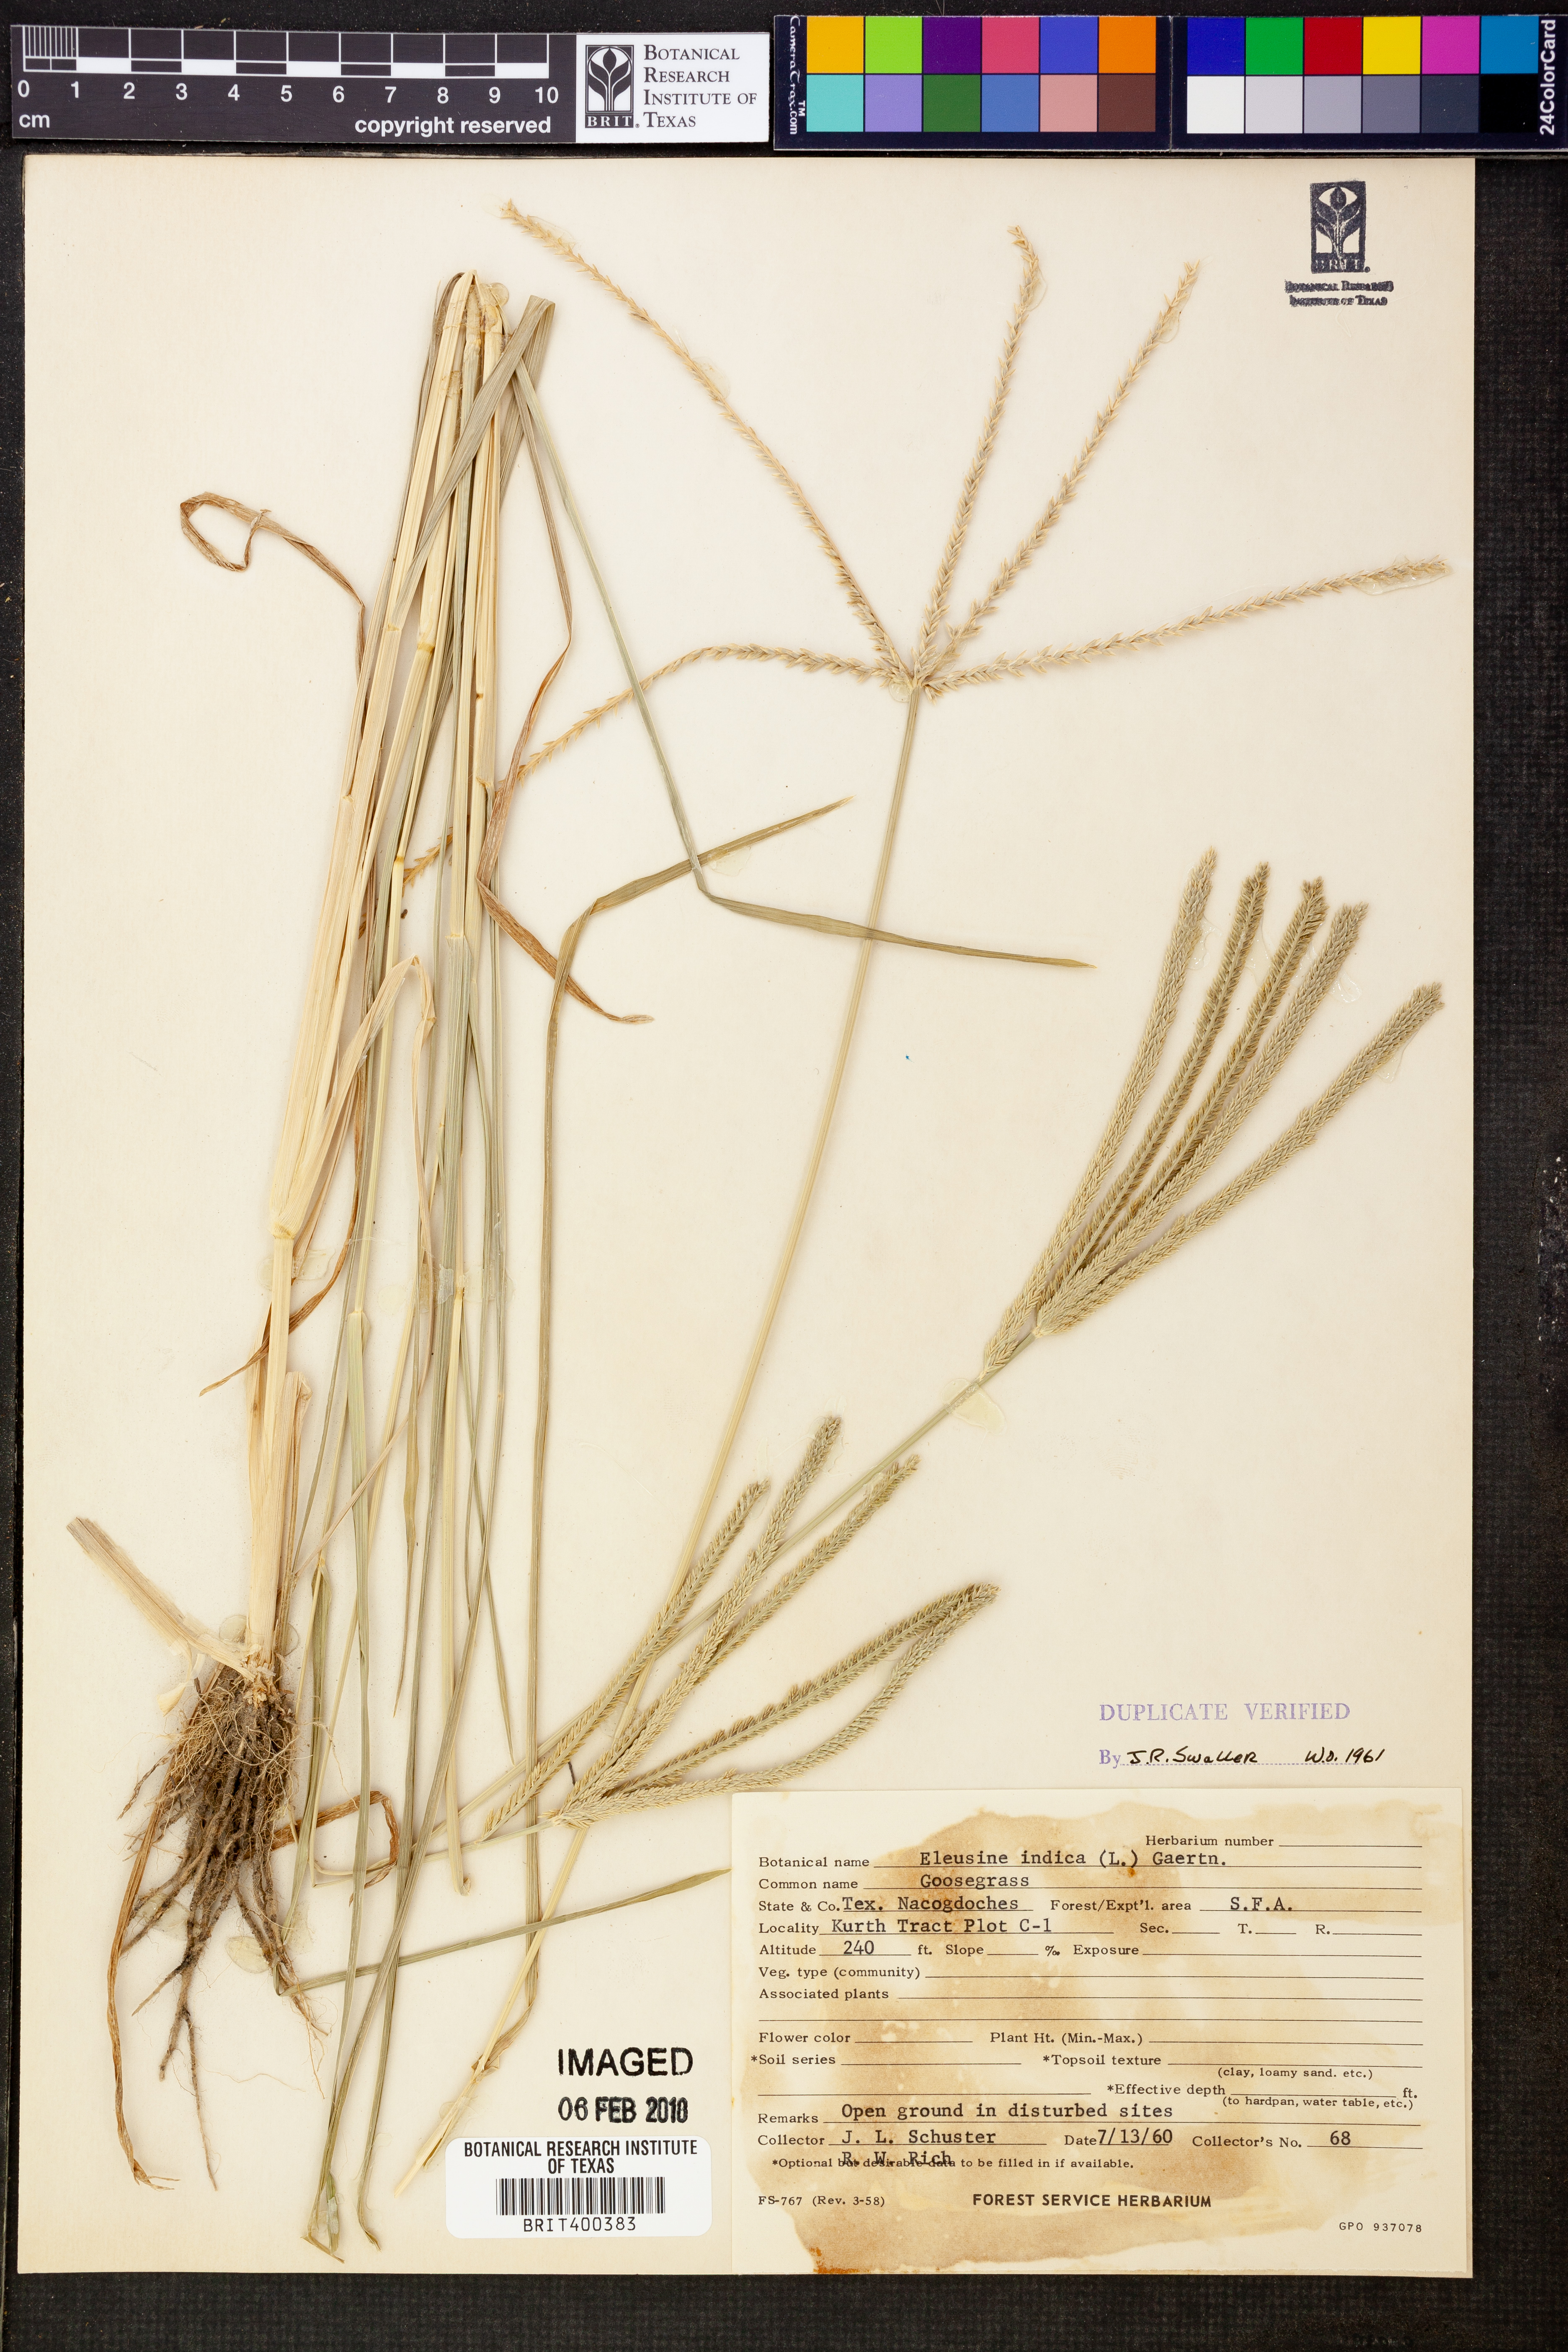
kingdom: Plantae
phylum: Tracheophyta
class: Liliopsida
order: Poales
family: Poaceae
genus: Eleusine
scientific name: Eleusine indica
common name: Yard-grass
